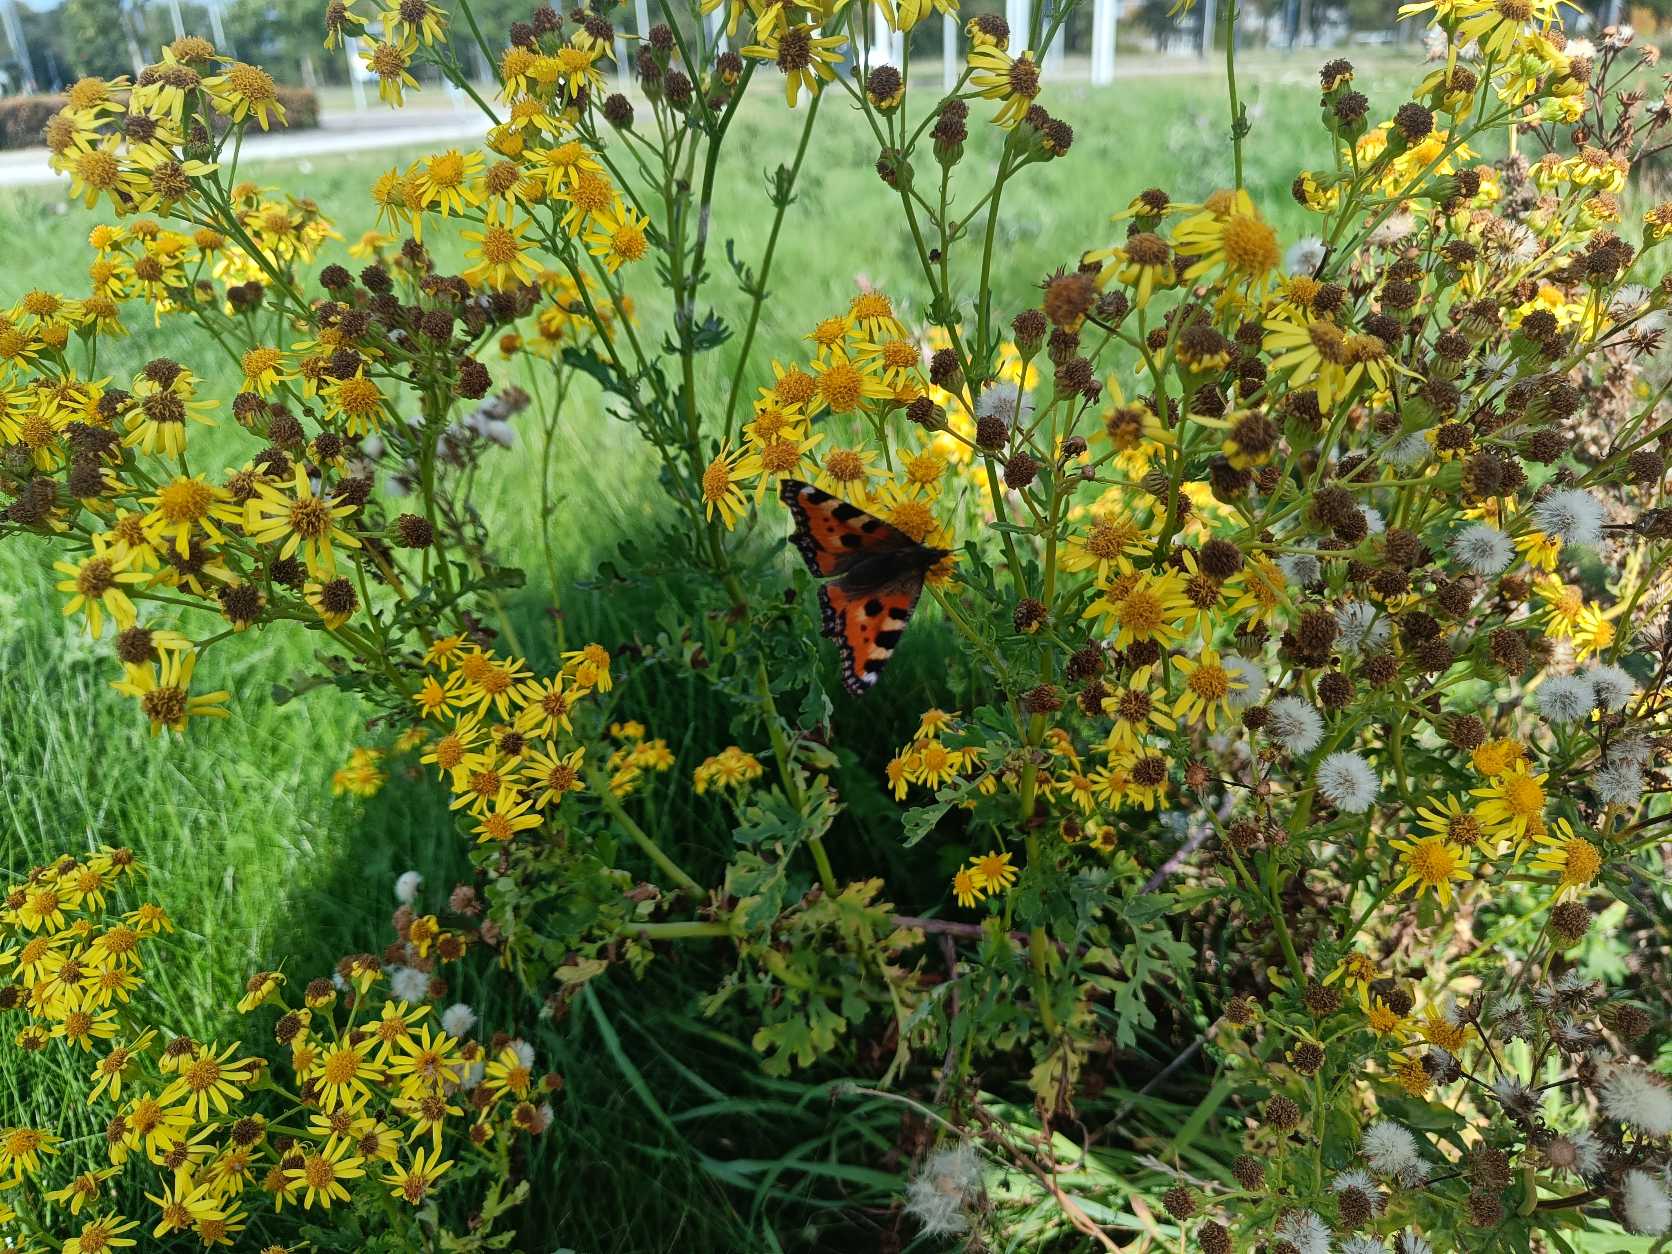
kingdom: Animalia
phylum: Arthropoda
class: Insecta
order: Lepidoptera
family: Nymphalidae
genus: Aglais
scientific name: Aglais urticae
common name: Nældens takvinge
